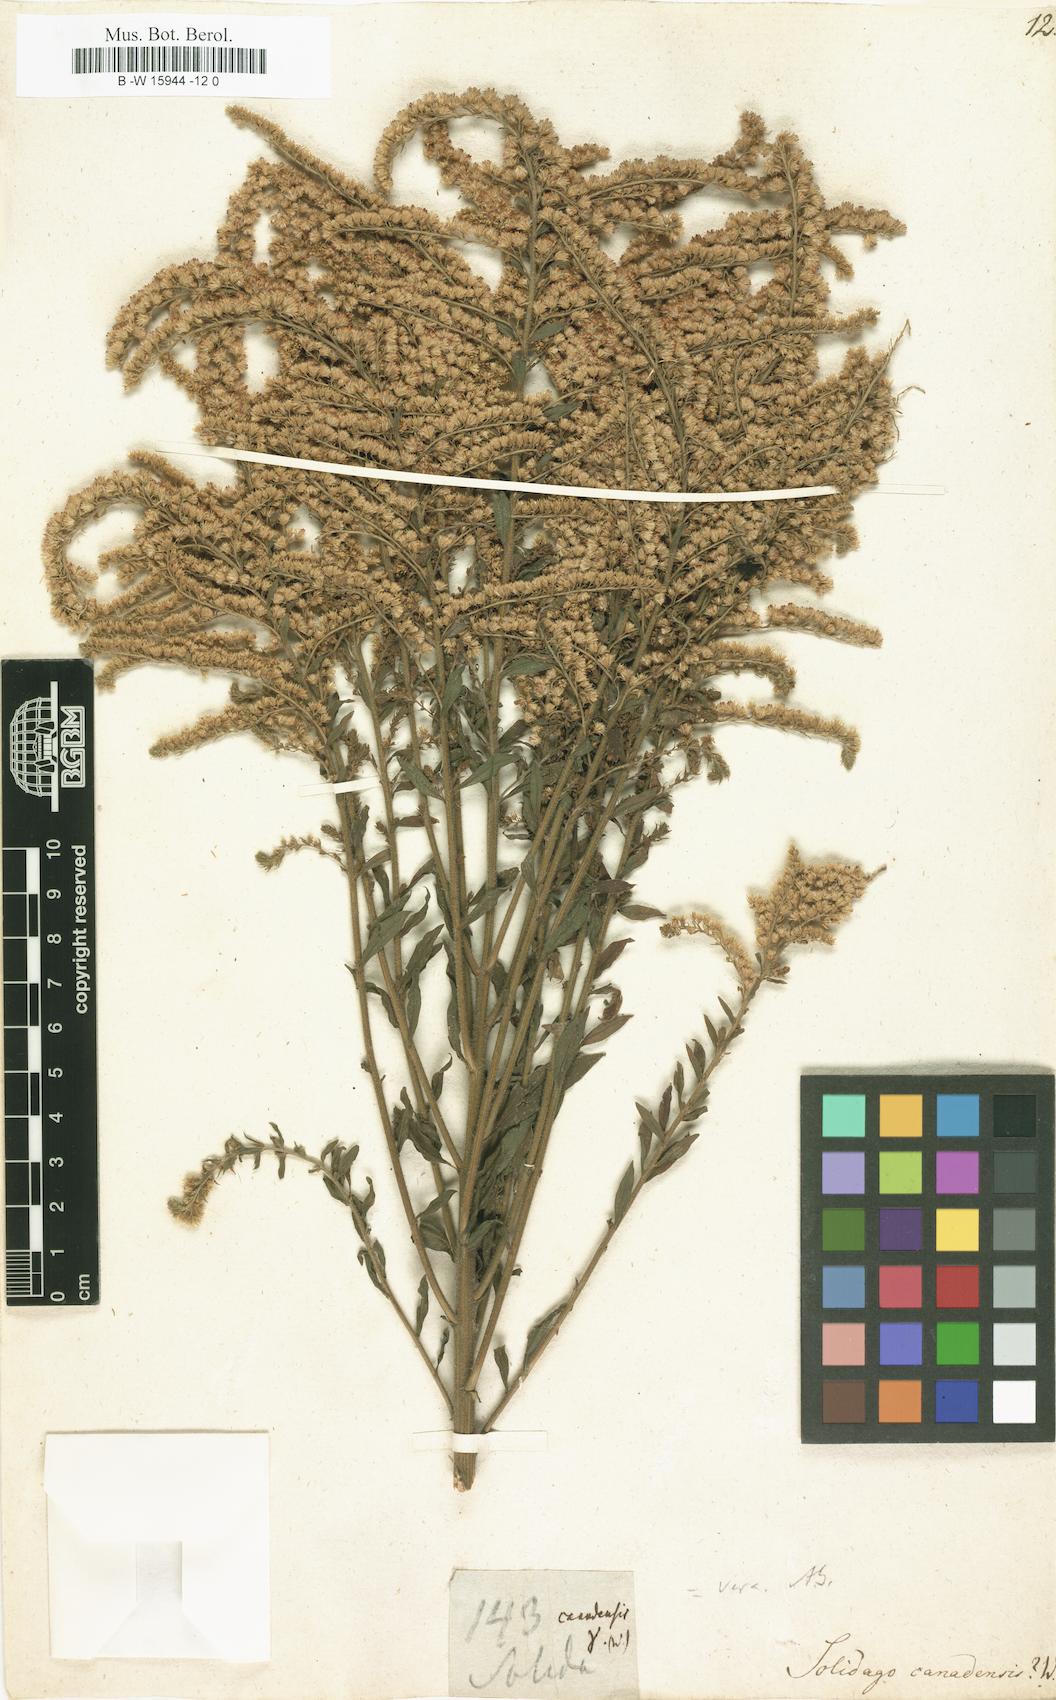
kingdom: Plantae
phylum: Tracheophyta
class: Magnoliopsida
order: Asterales
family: Asteraceae
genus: Solidago
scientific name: Solidago canadensis
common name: Canada goldenrod
